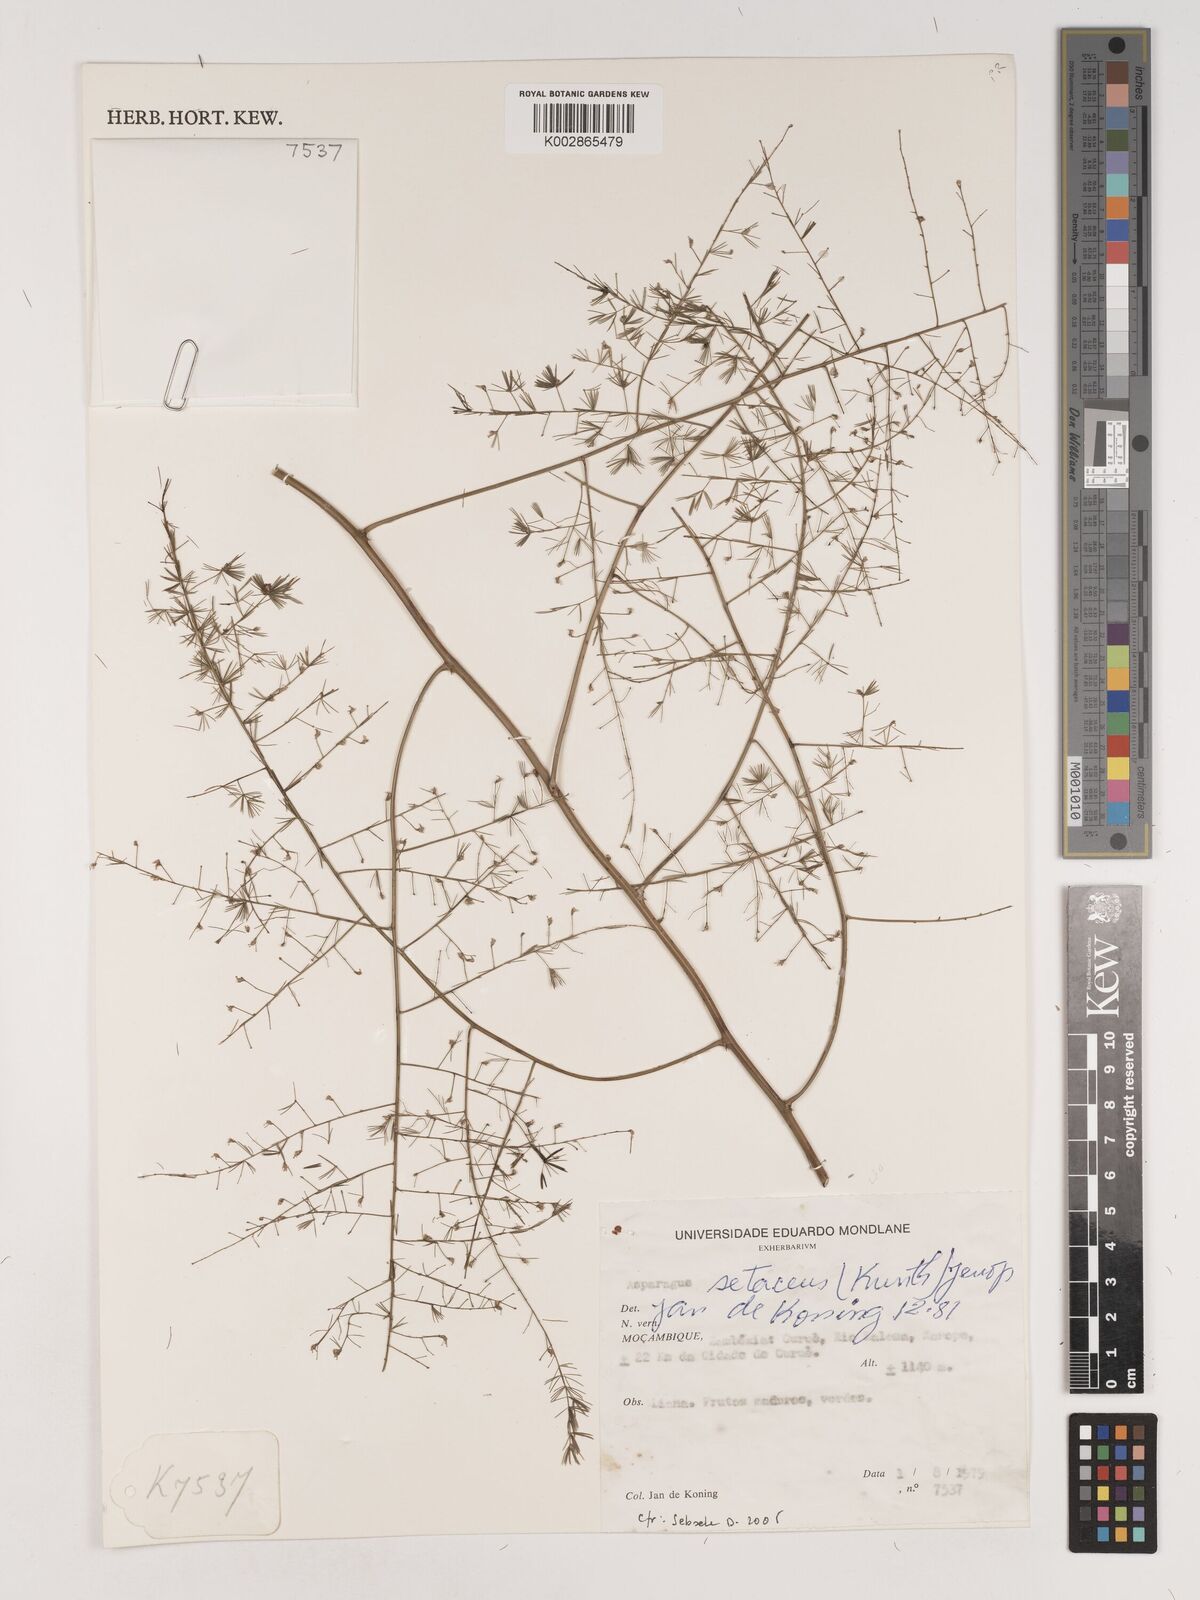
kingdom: Plantae
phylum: Tracheophyta
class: Liliopsida
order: Asparagales
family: Asparagaceae
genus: Asparagus
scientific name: Asparagus setaceus
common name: Common asparagus fern
